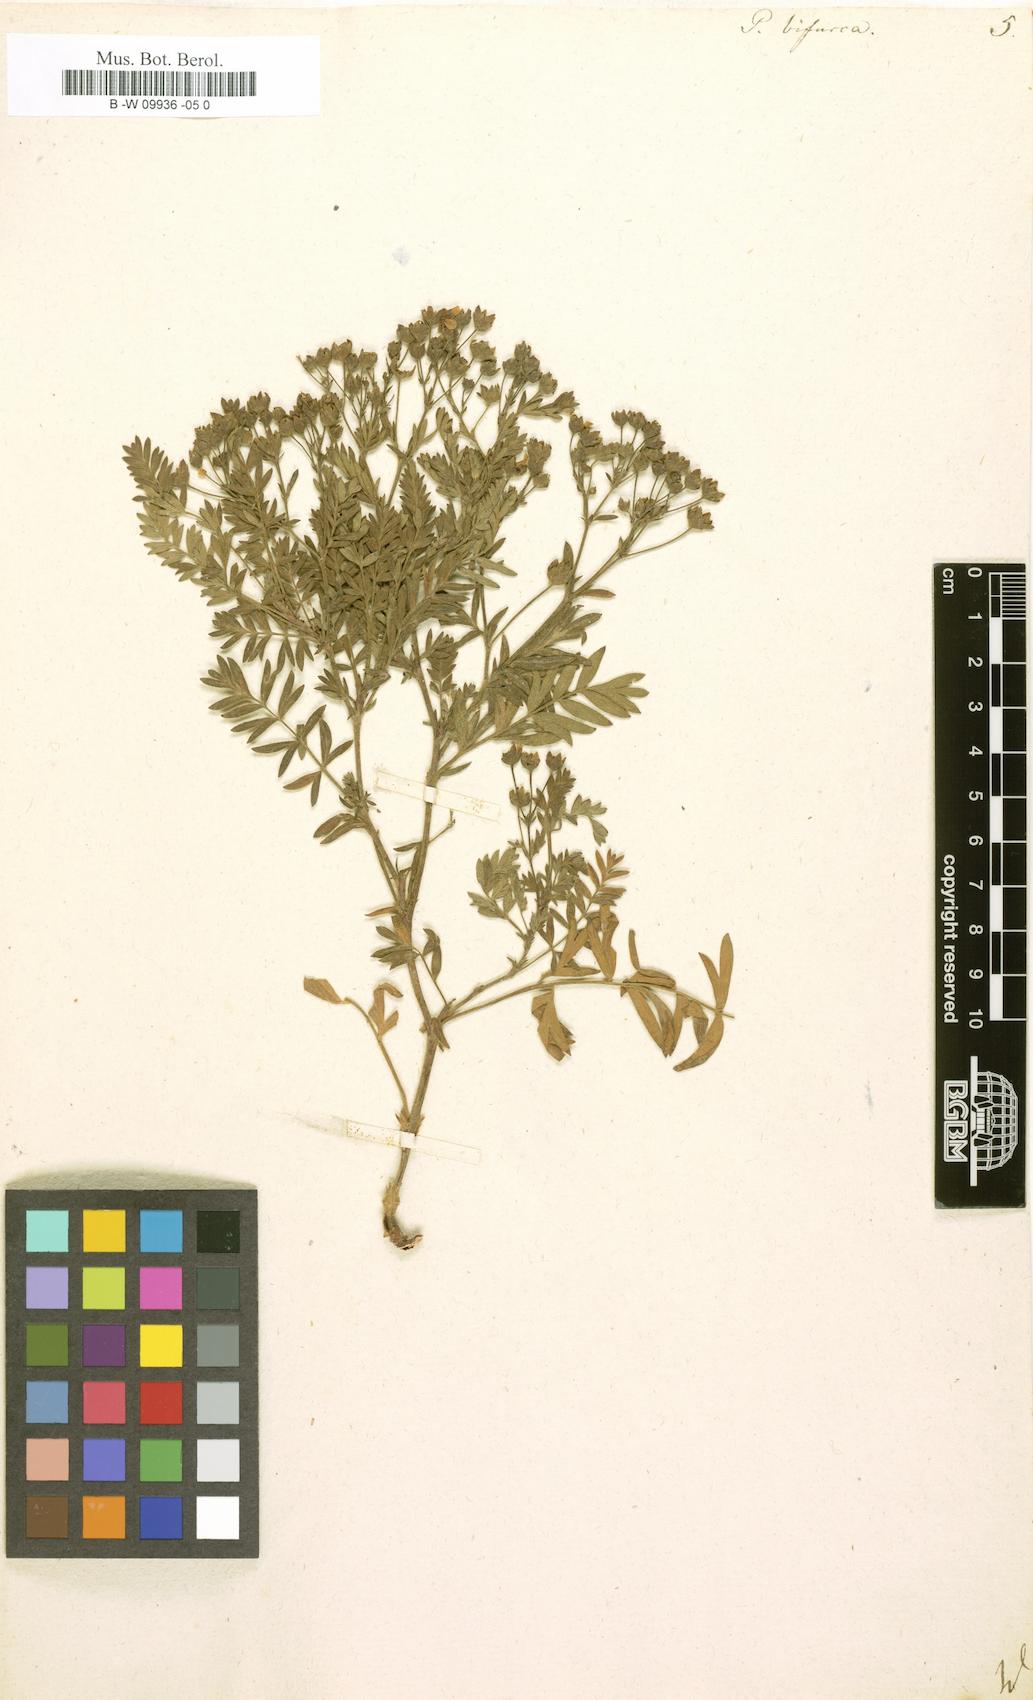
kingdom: Plantae
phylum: Tracheophyta
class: Magnoliopsida
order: Rosales
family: Rosaceae
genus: Sibbaldianthe
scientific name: Sibbaldianthe bifurca
